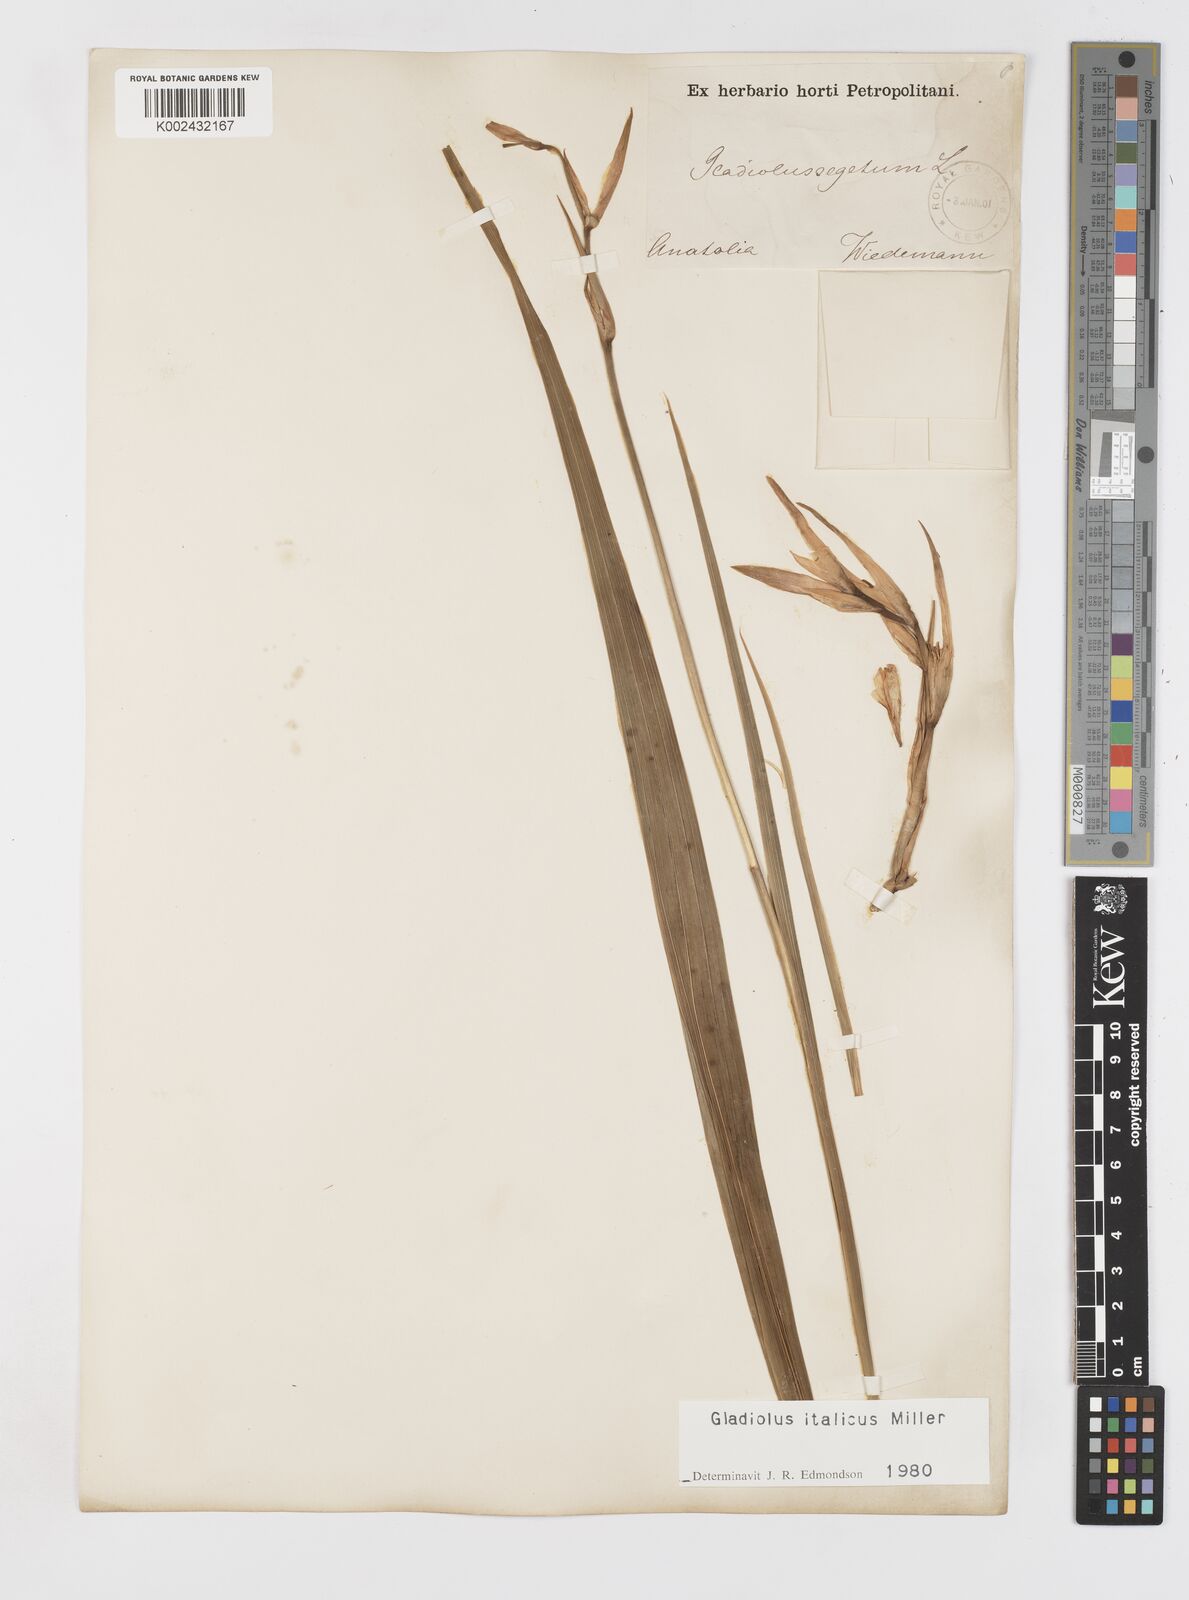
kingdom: Plantae
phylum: Tracheophyta
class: Liliopsida
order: Asparagales
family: Iridaceae
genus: Gladiolus
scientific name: Gladiolus italicus
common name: Field gladiolus
